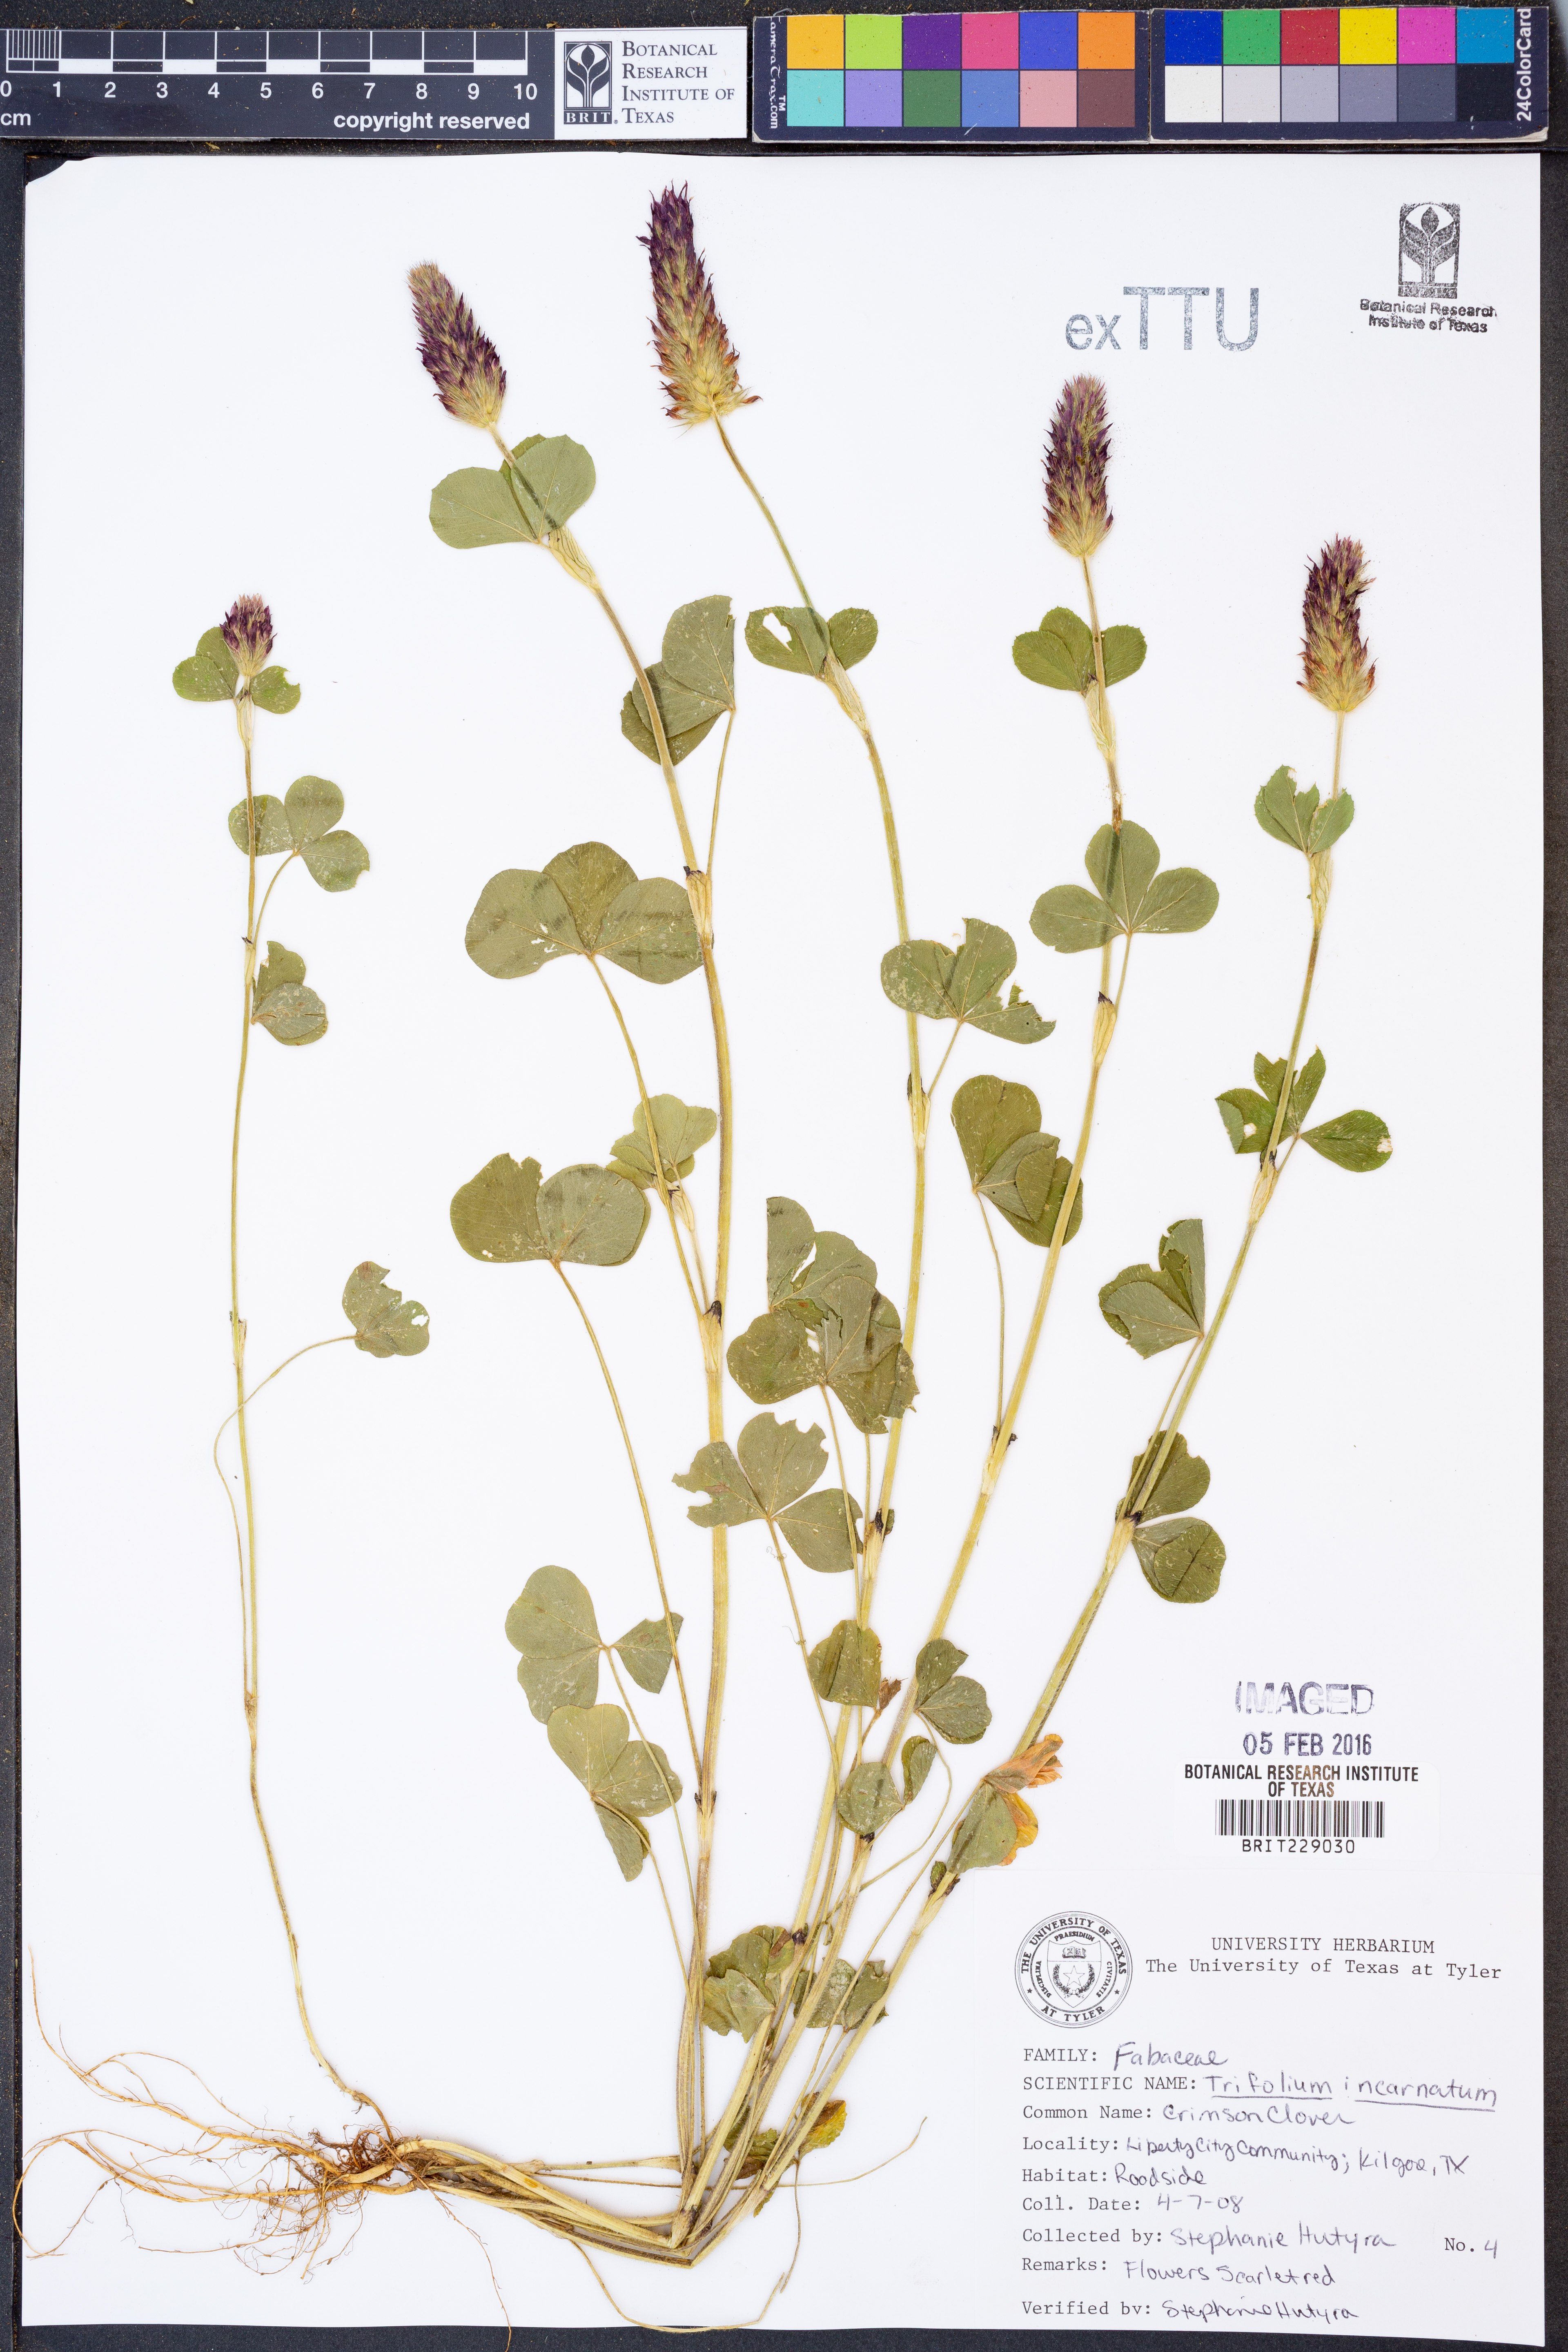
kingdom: Plantae
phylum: Tracheophyta
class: Magnoliopsida
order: Fabales
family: Fabaceae
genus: Trifolium
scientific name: Trifolium incarnatum
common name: Crimson clover
